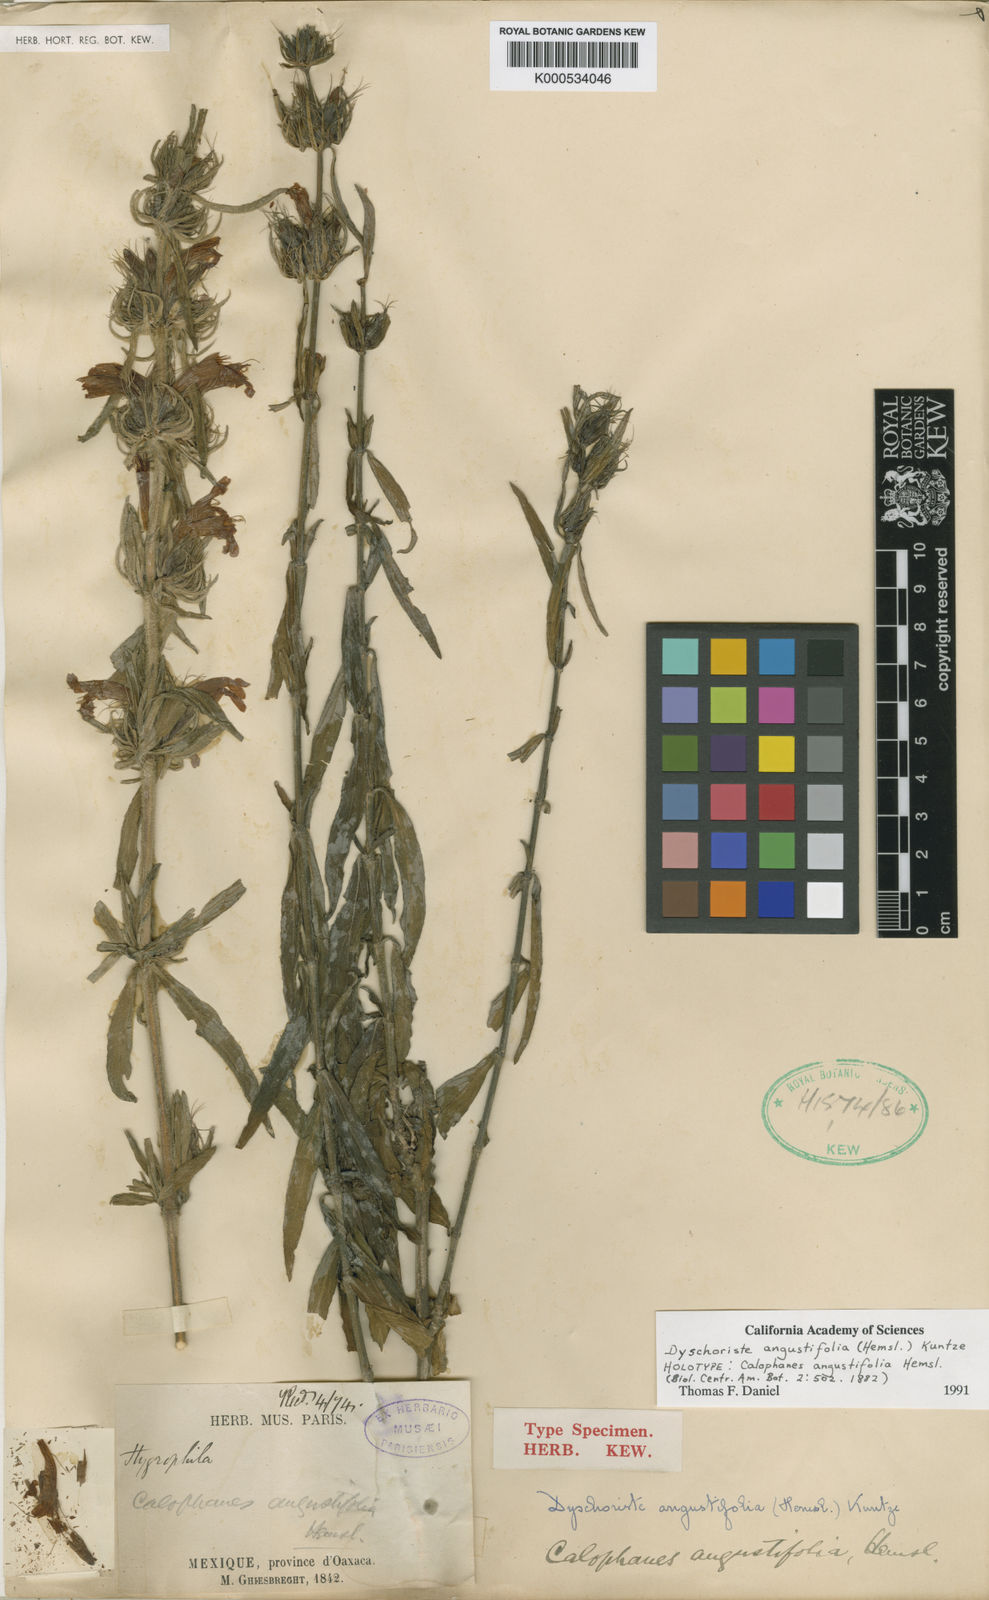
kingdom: Plantae
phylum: Tracheophyta
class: Magnoliopsida
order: Lamiales
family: Acanthaceae
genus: Dyschoriste
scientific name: Dyschoriste angustifolia
